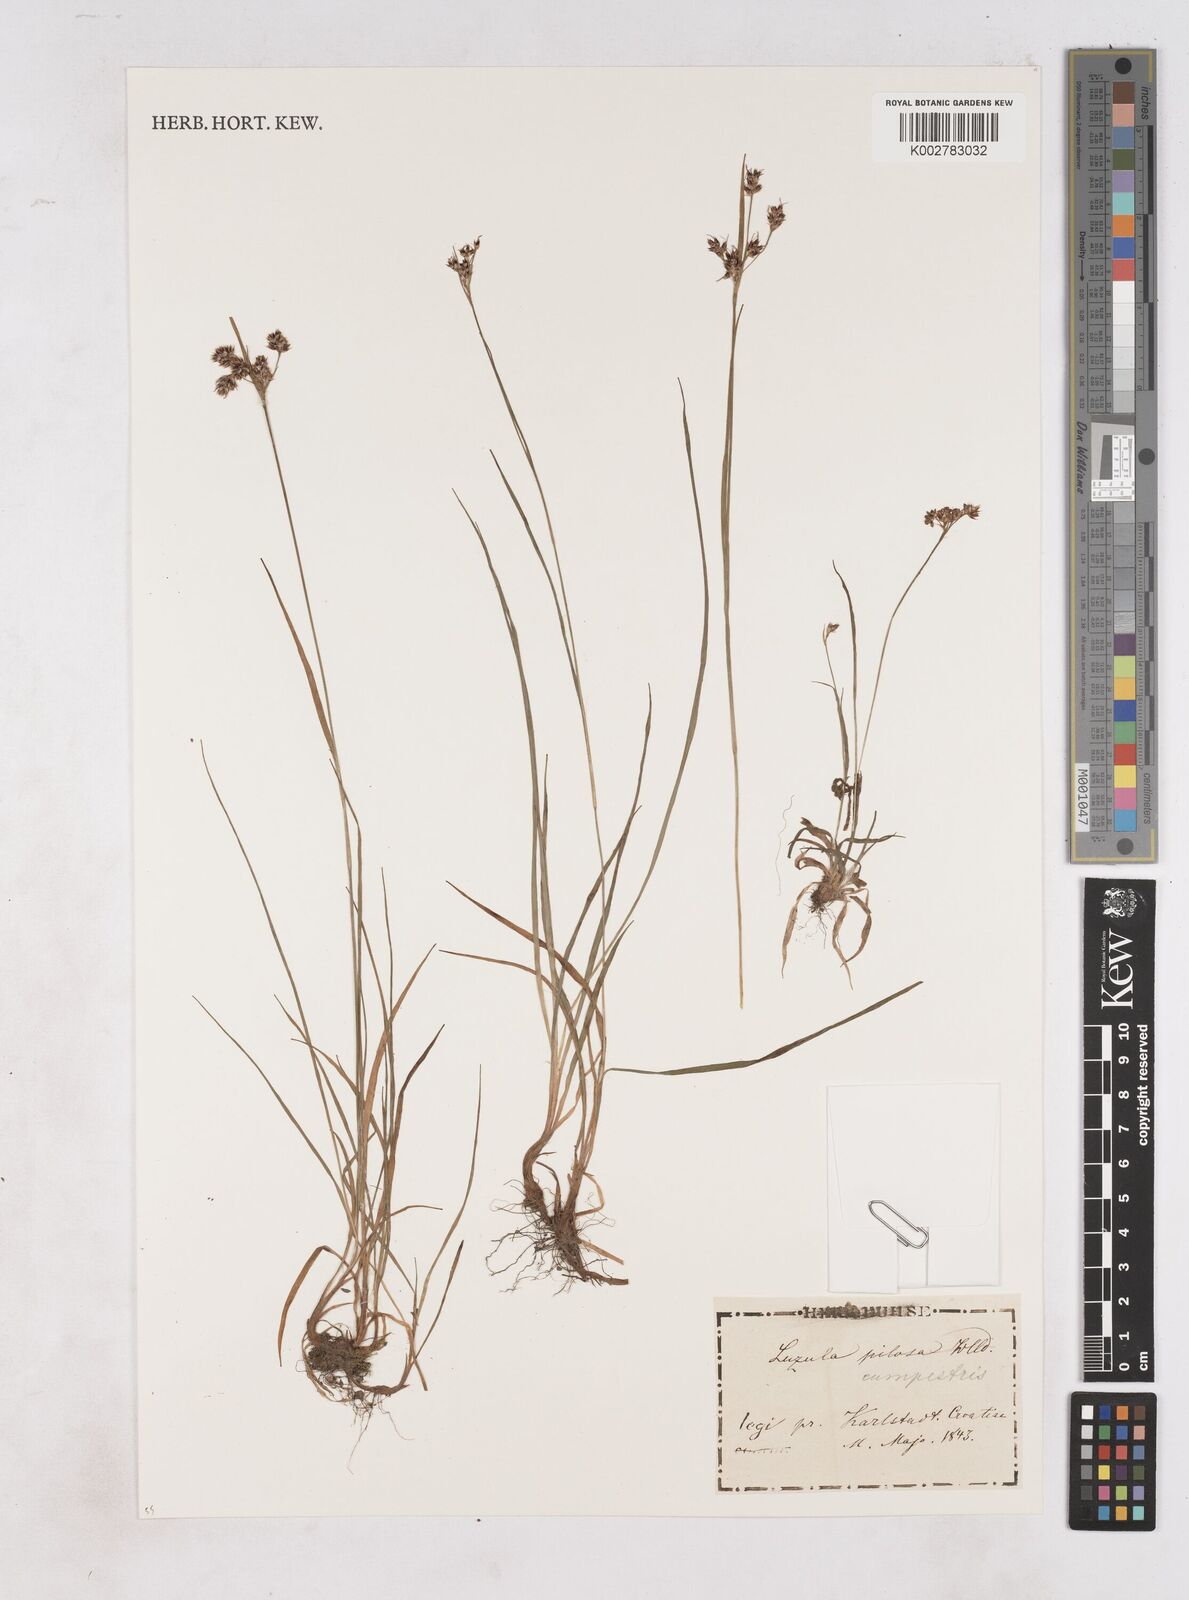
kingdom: Plantae
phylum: Tracheophyta
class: Liliopsida
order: Poales
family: Juncaceae
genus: Luzula
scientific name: Luzula campestris
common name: Field wood-rush
